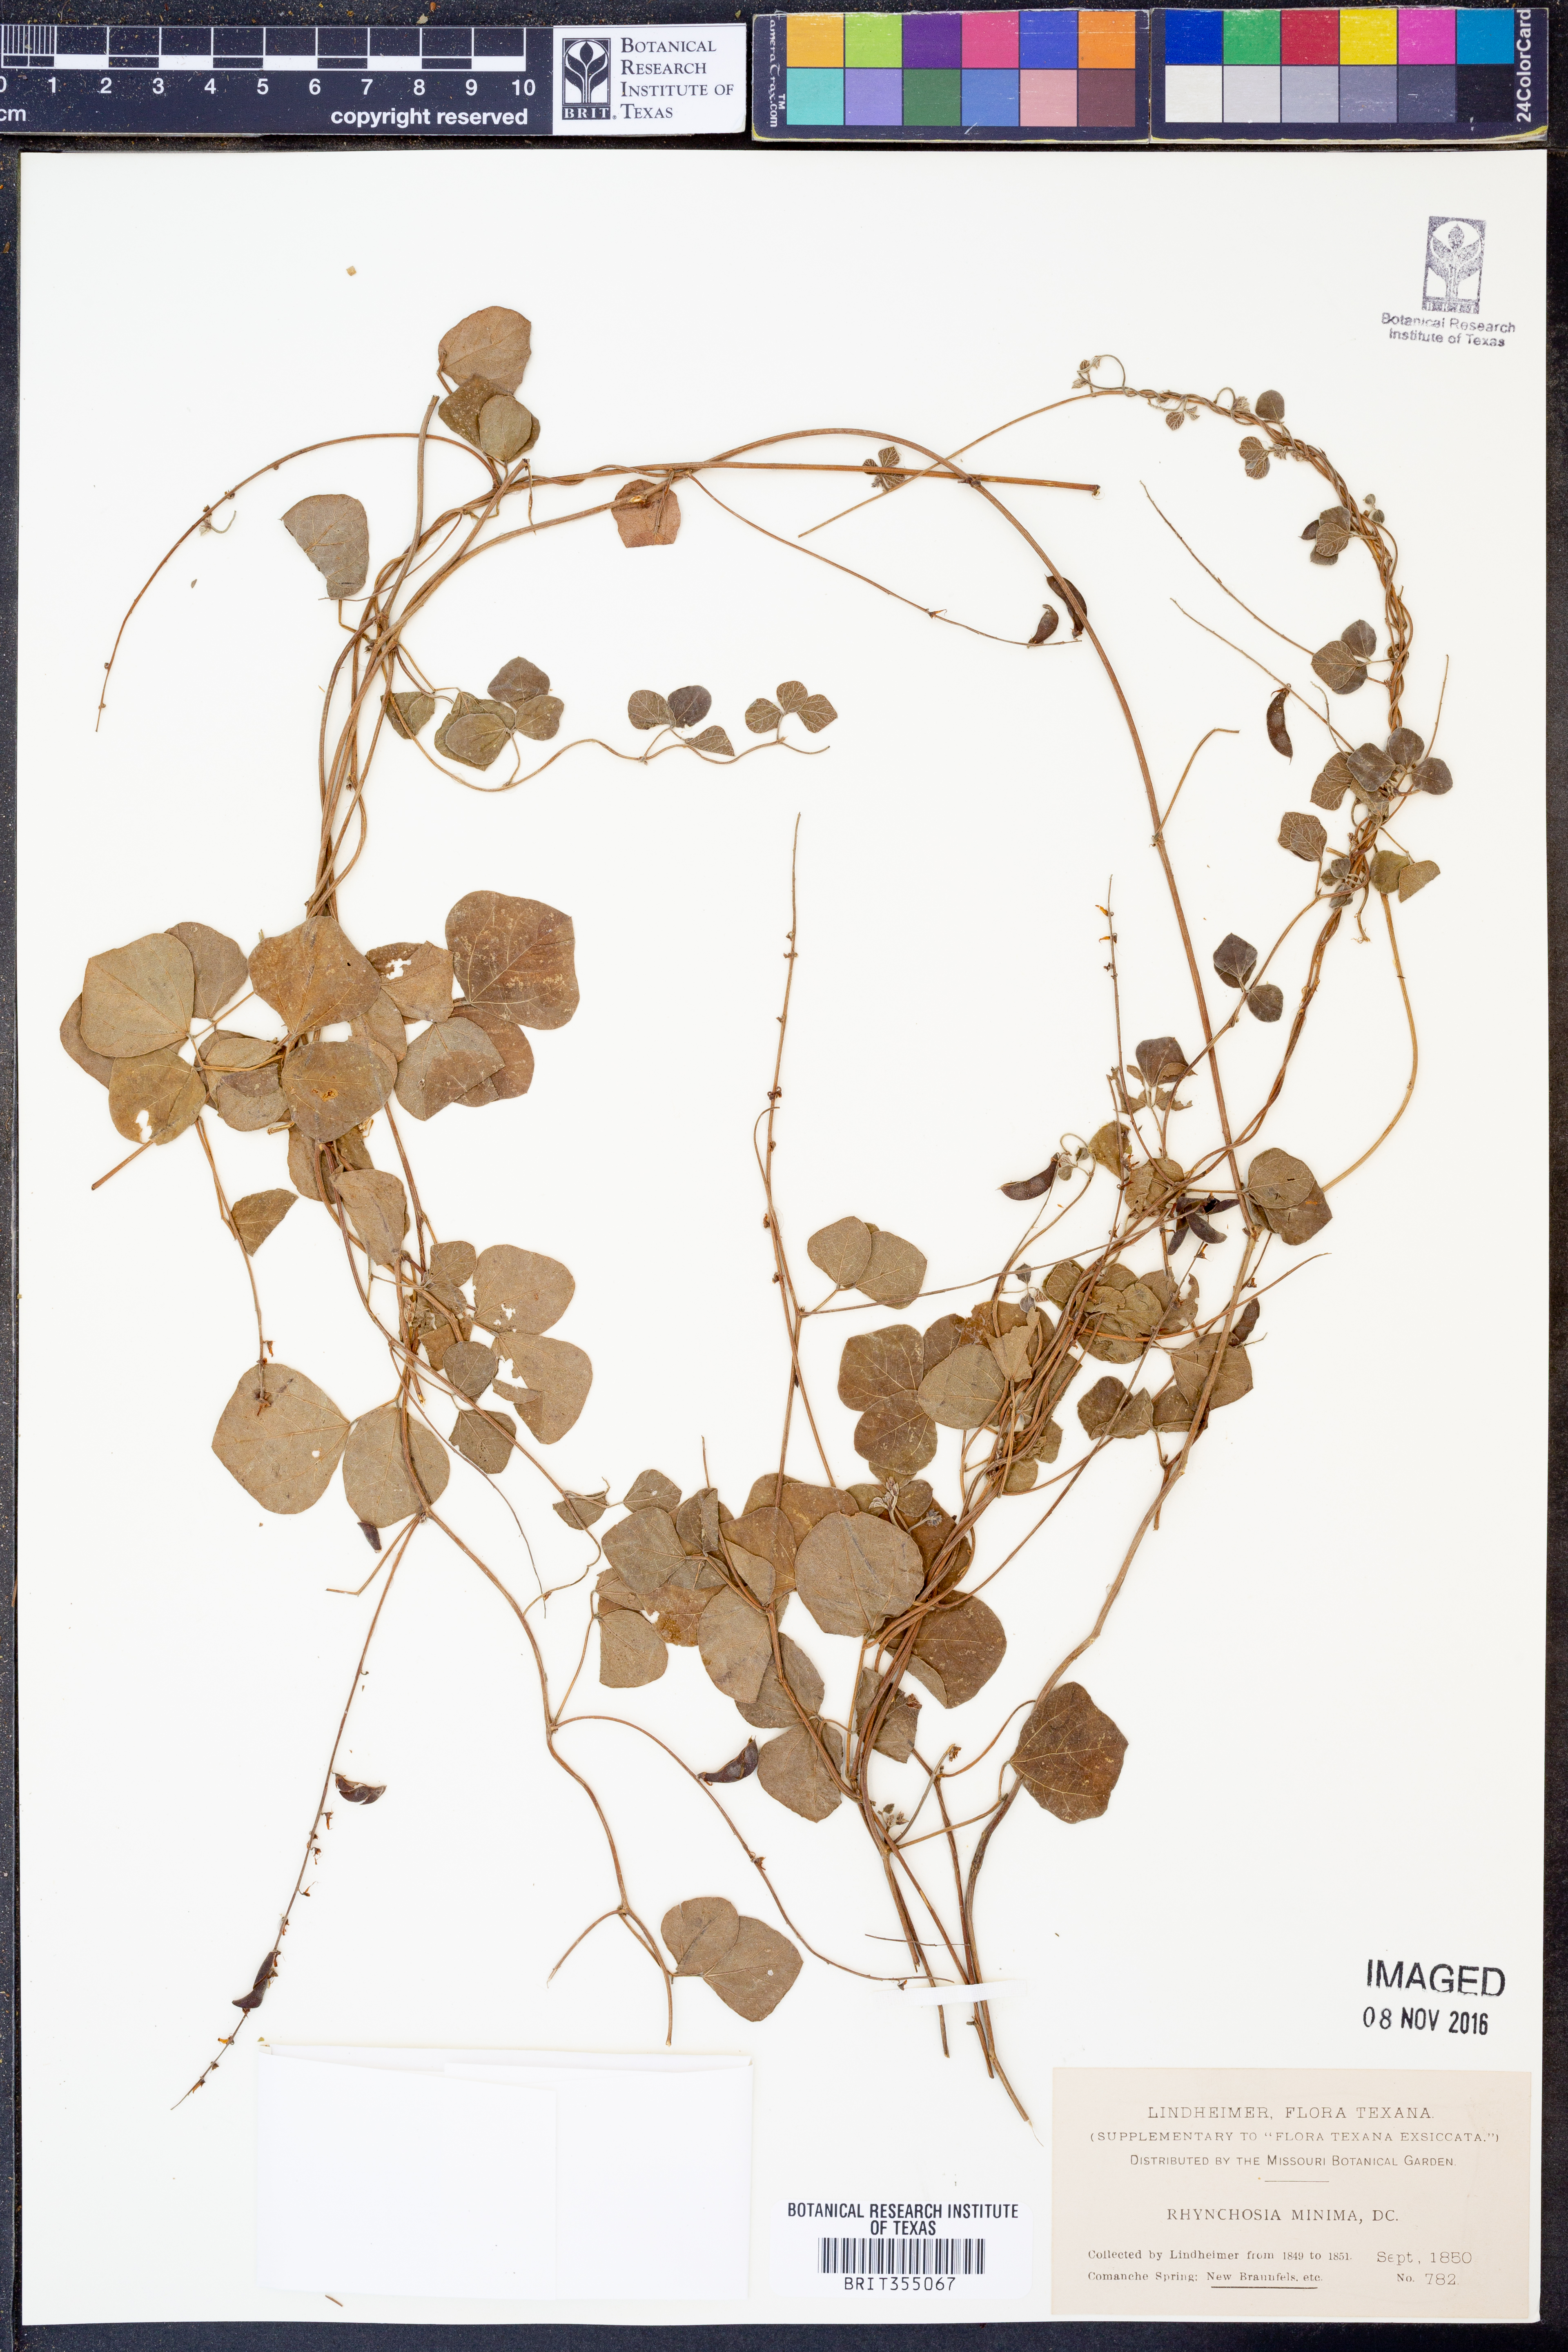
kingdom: Plantae
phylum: Tracheophyta
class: Magnoliopsida
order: Fabales
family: Fabaceae
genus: Rhynchosia
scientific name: Rhynchosia minima
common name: Least snoutbean
